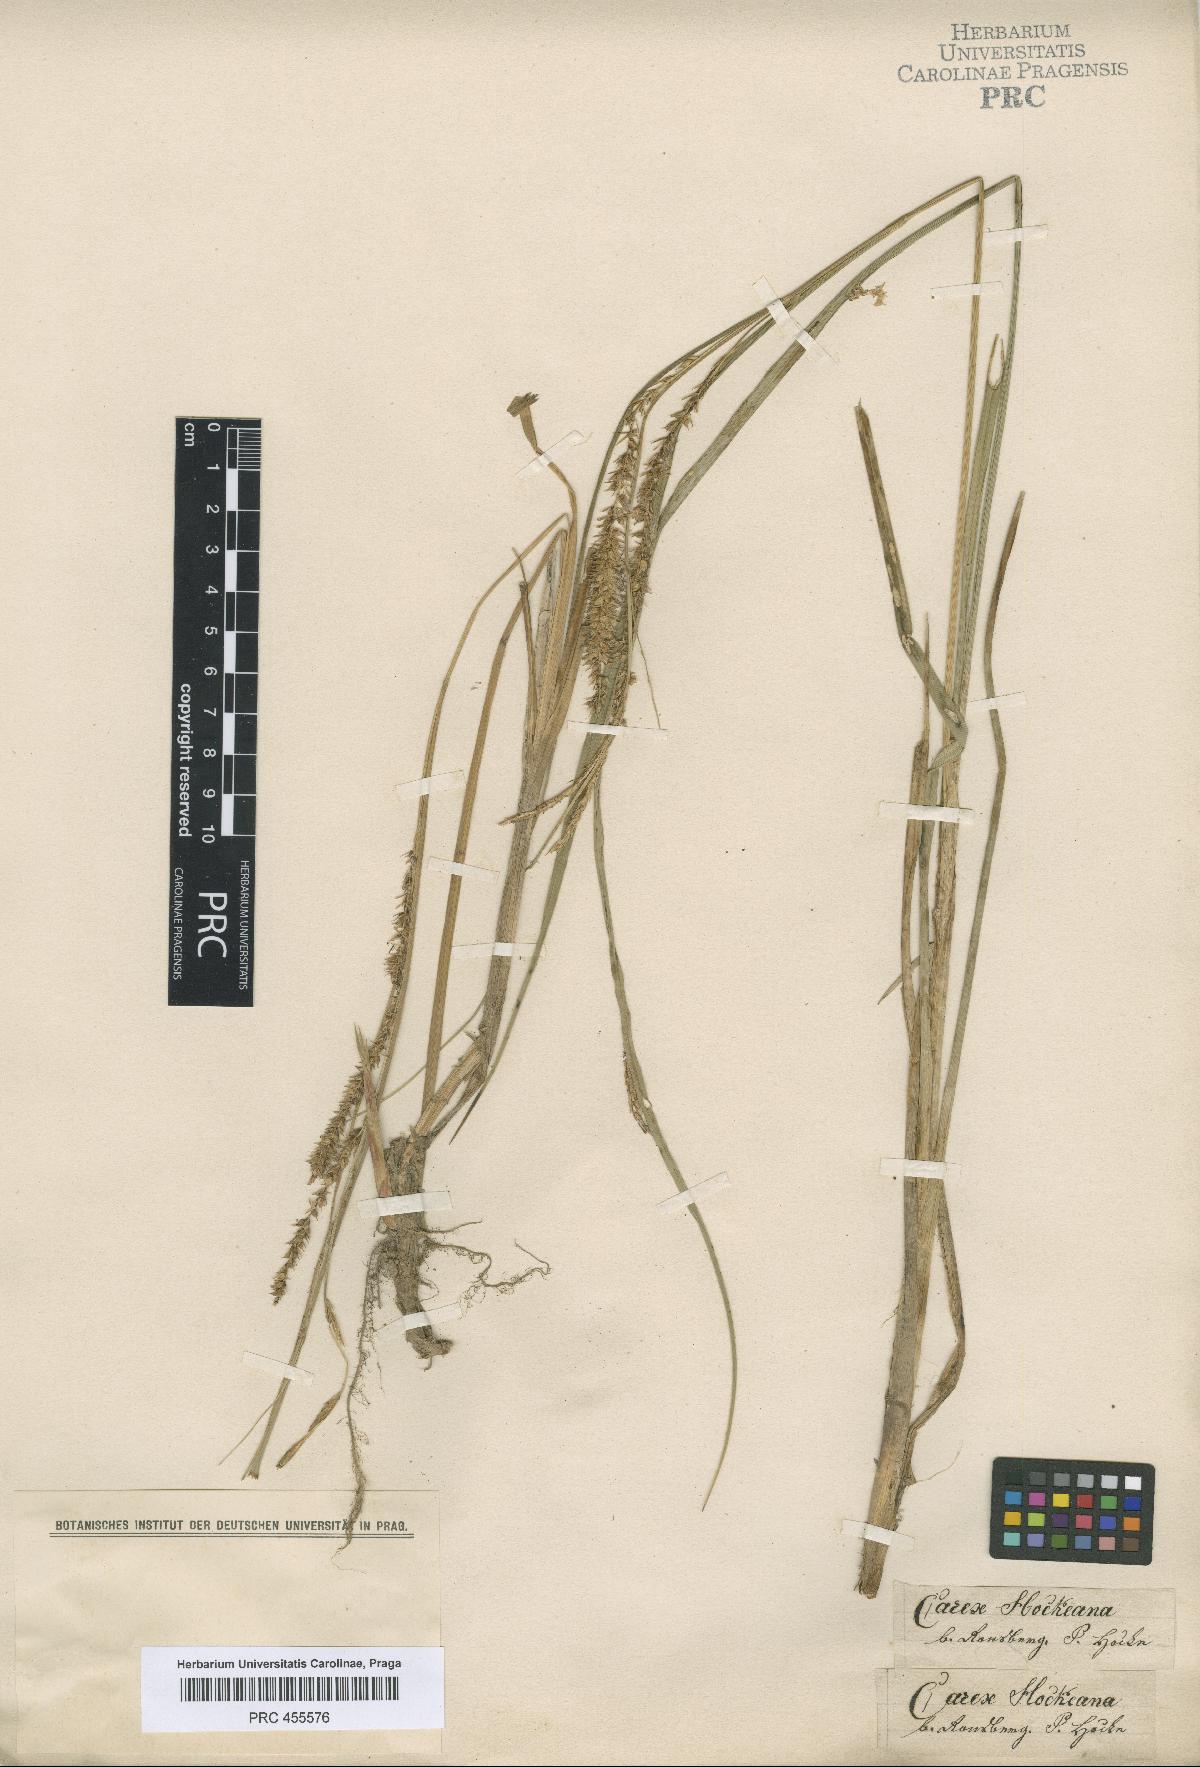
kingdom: Plantae
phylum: Tracheophyta
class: Liliopsida
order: Poales
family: Cyperaceae
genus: Carex
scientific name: Carex rostrata
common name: Bottle sedge
